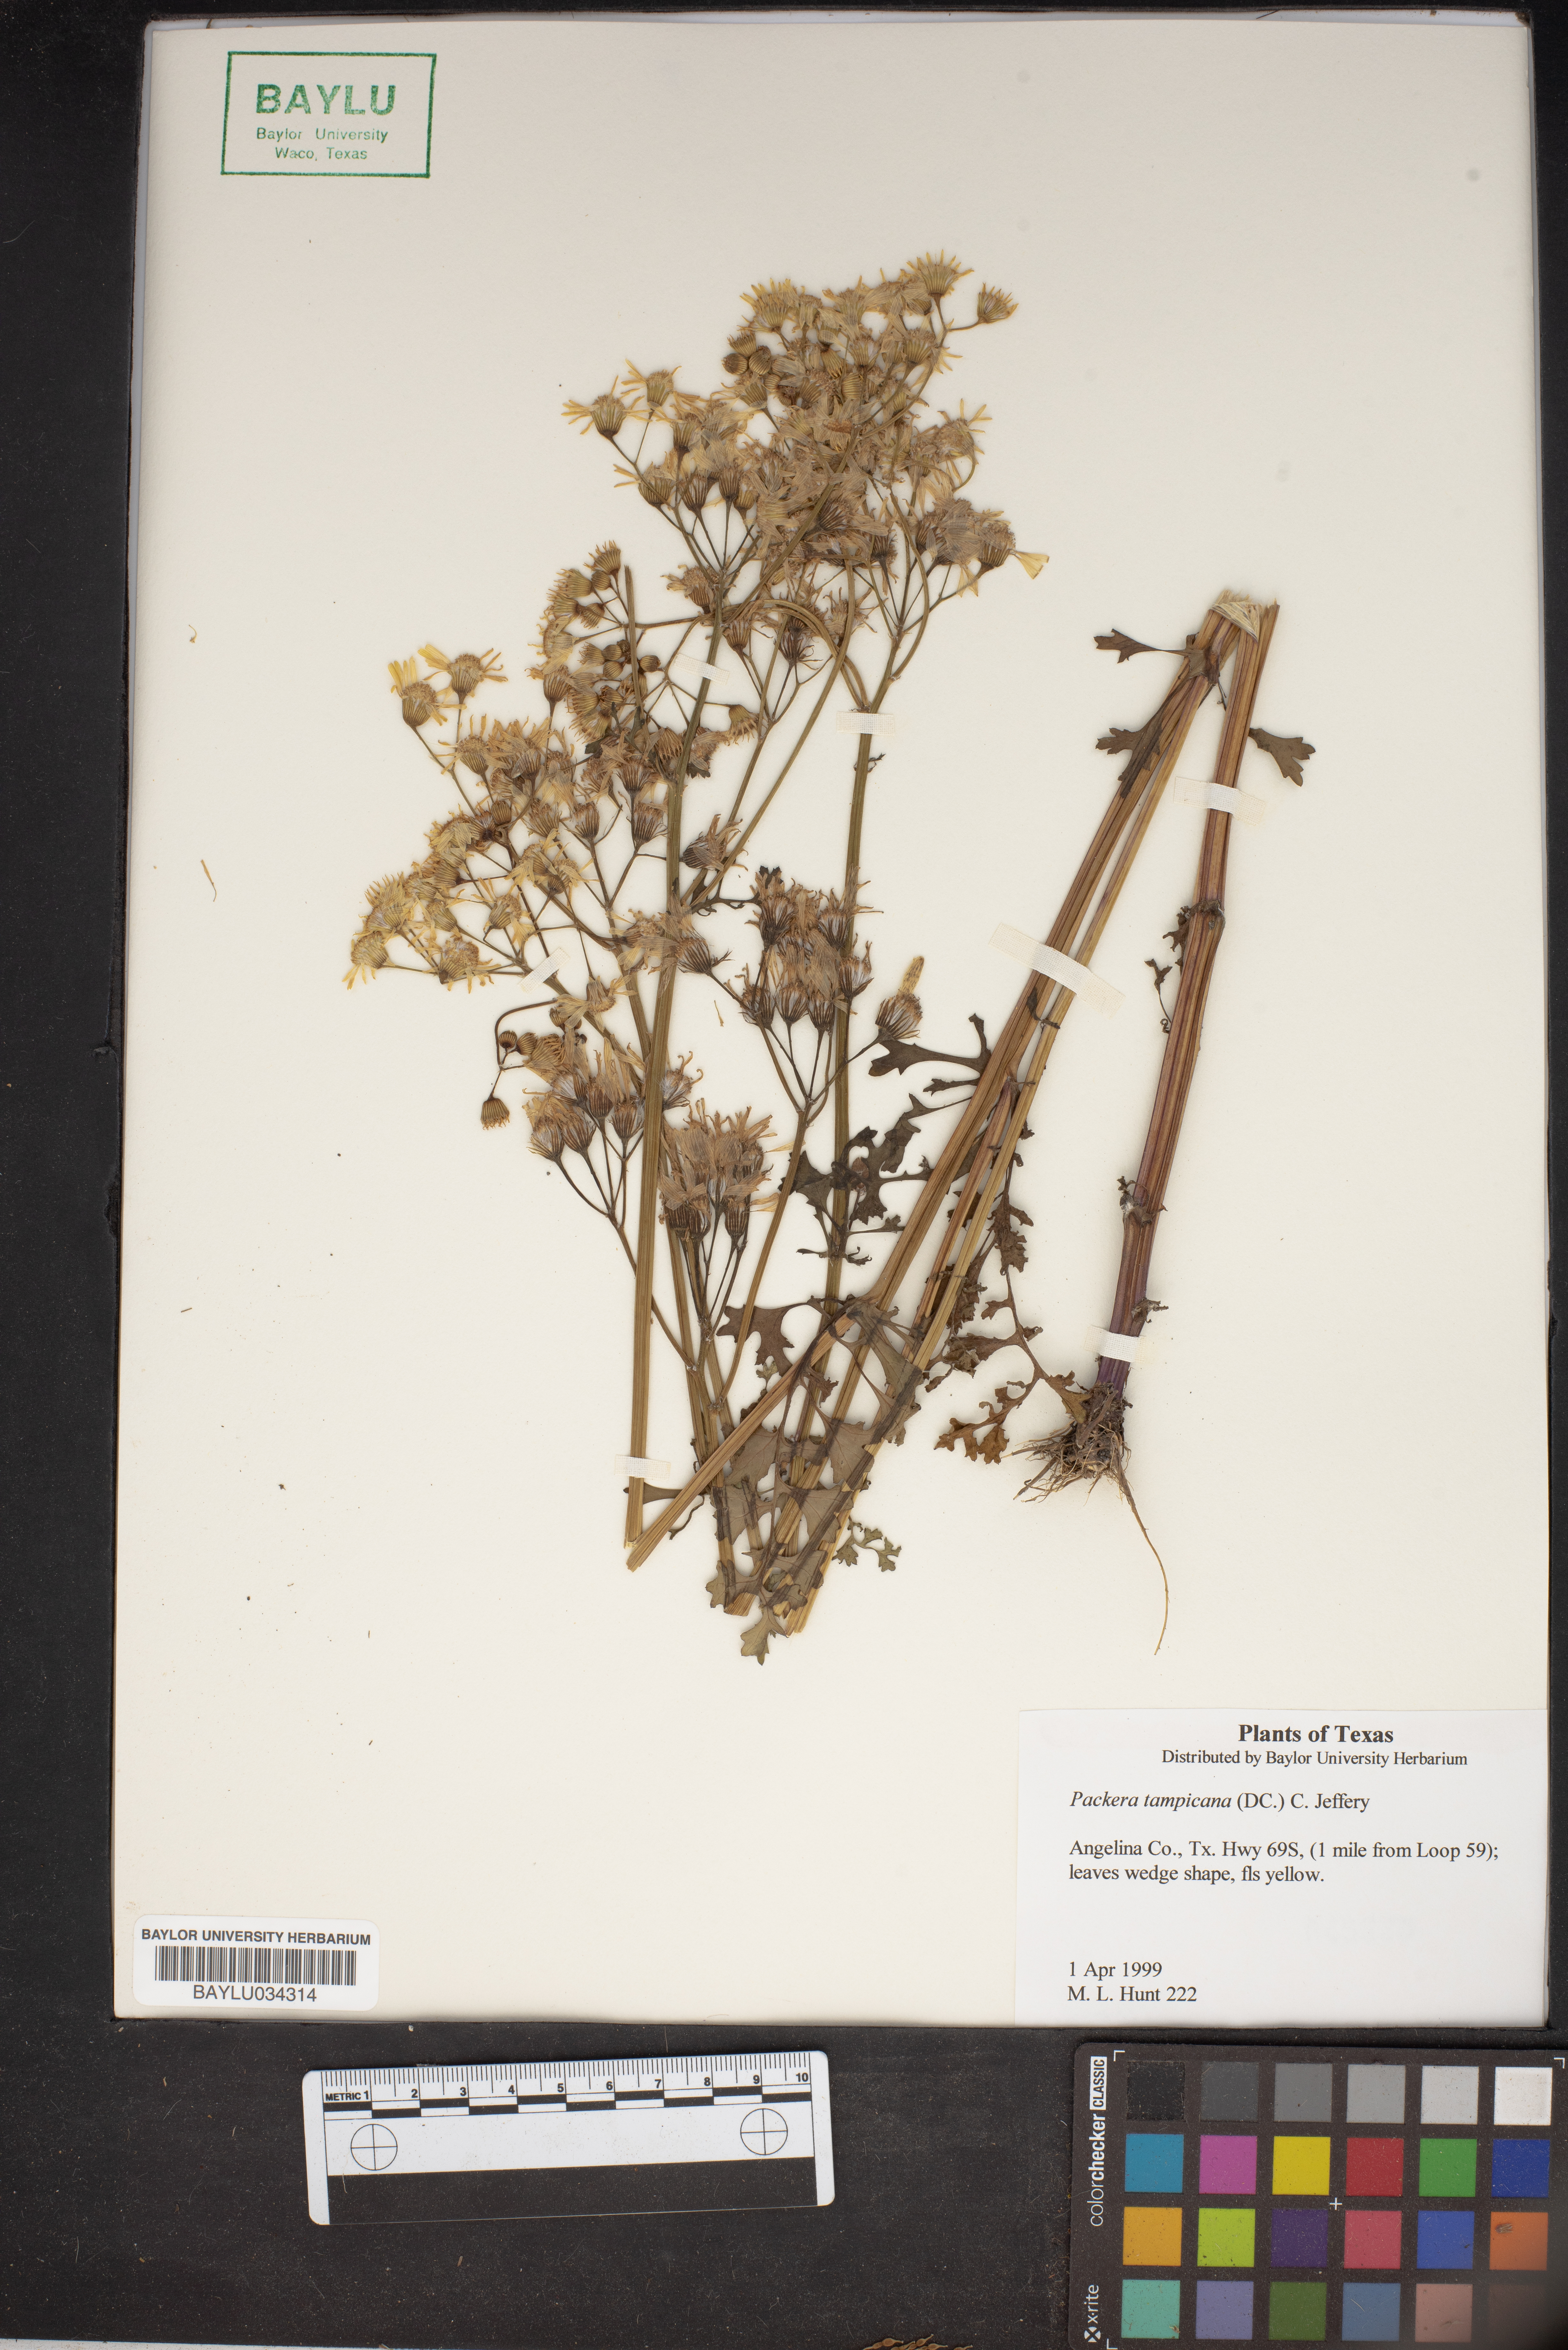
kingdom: Plantae
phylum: Tracheophyta
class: Magnoliopsida
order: Asterales
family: Asteraceae
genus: Packera
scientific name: Packera tampicana
